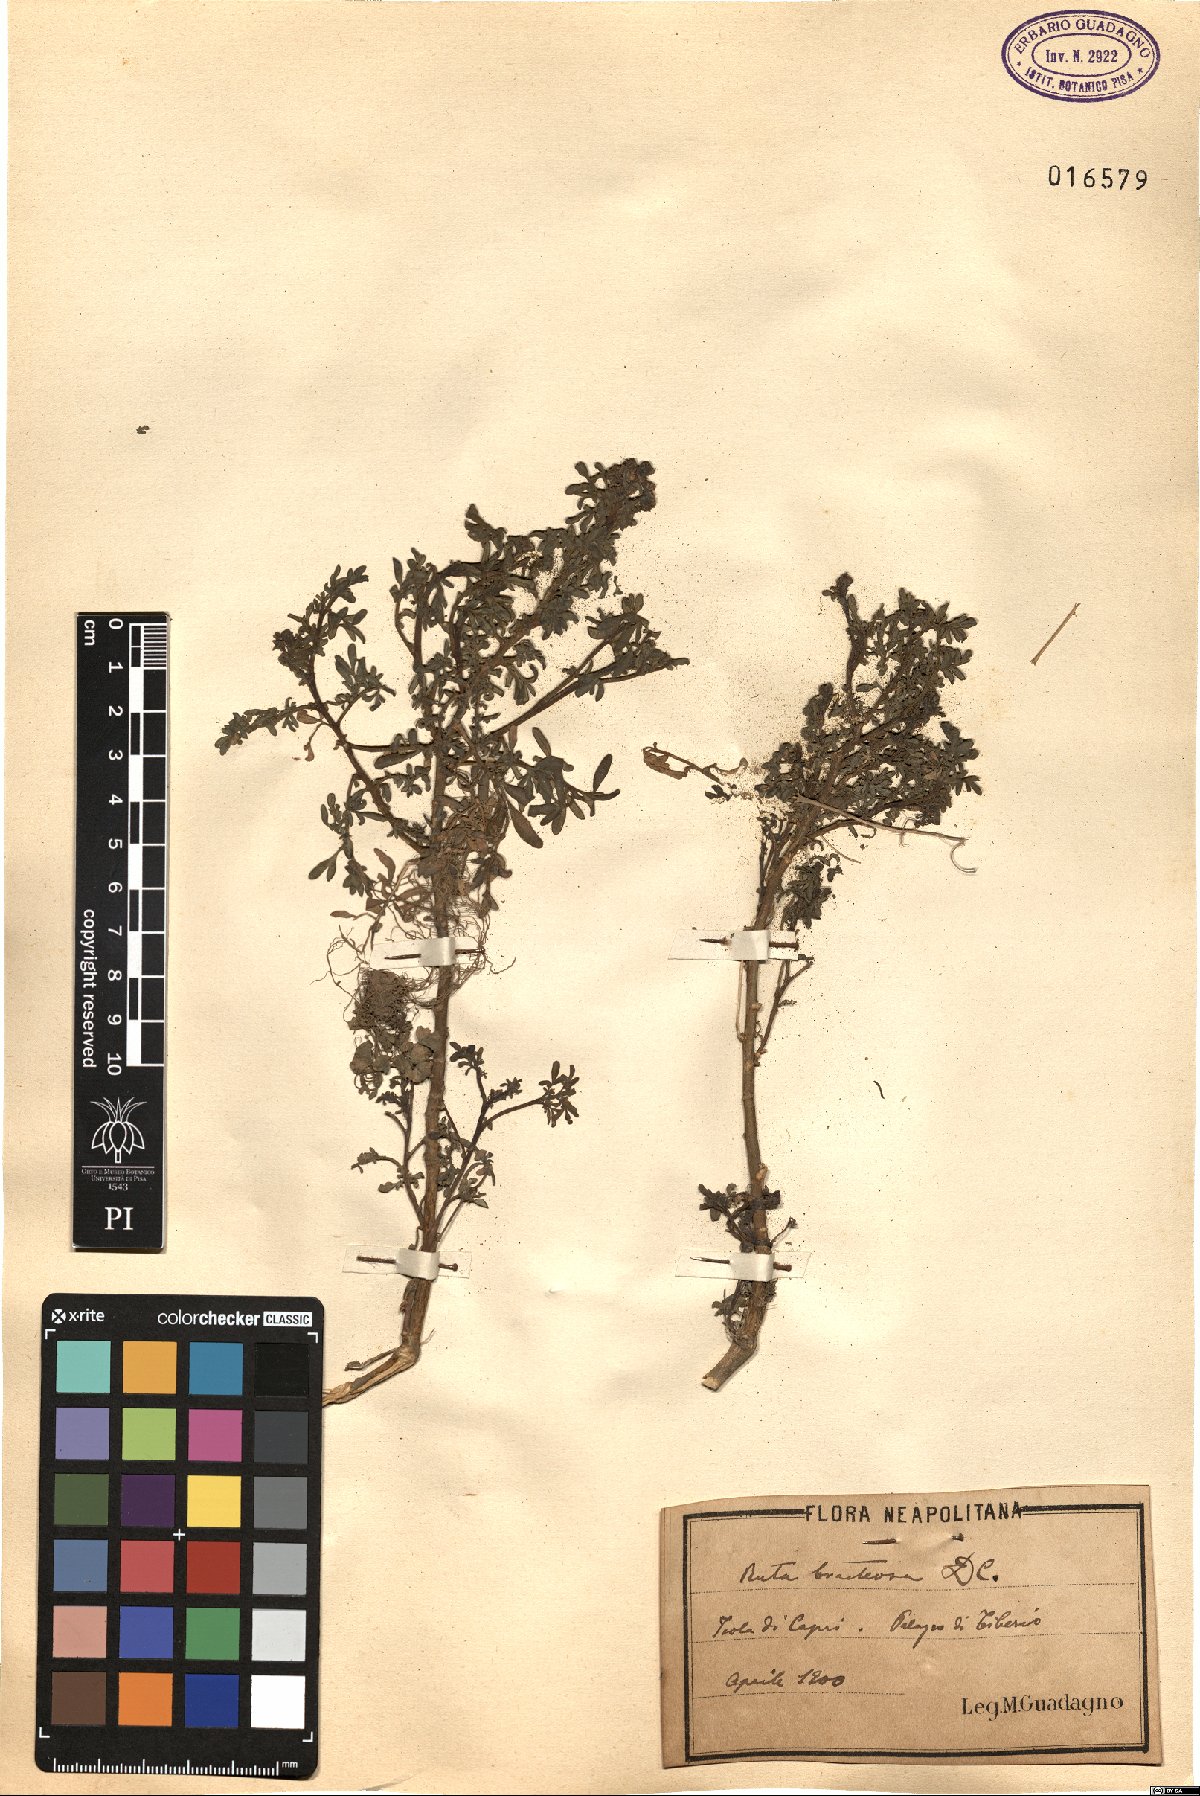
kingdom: Plantae
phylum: Tracheophyta
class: Magnoliopsida
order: Sapindales
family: Rutaceae
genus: Ruta
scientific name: Ruta chalepensis
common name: Fringed rue
